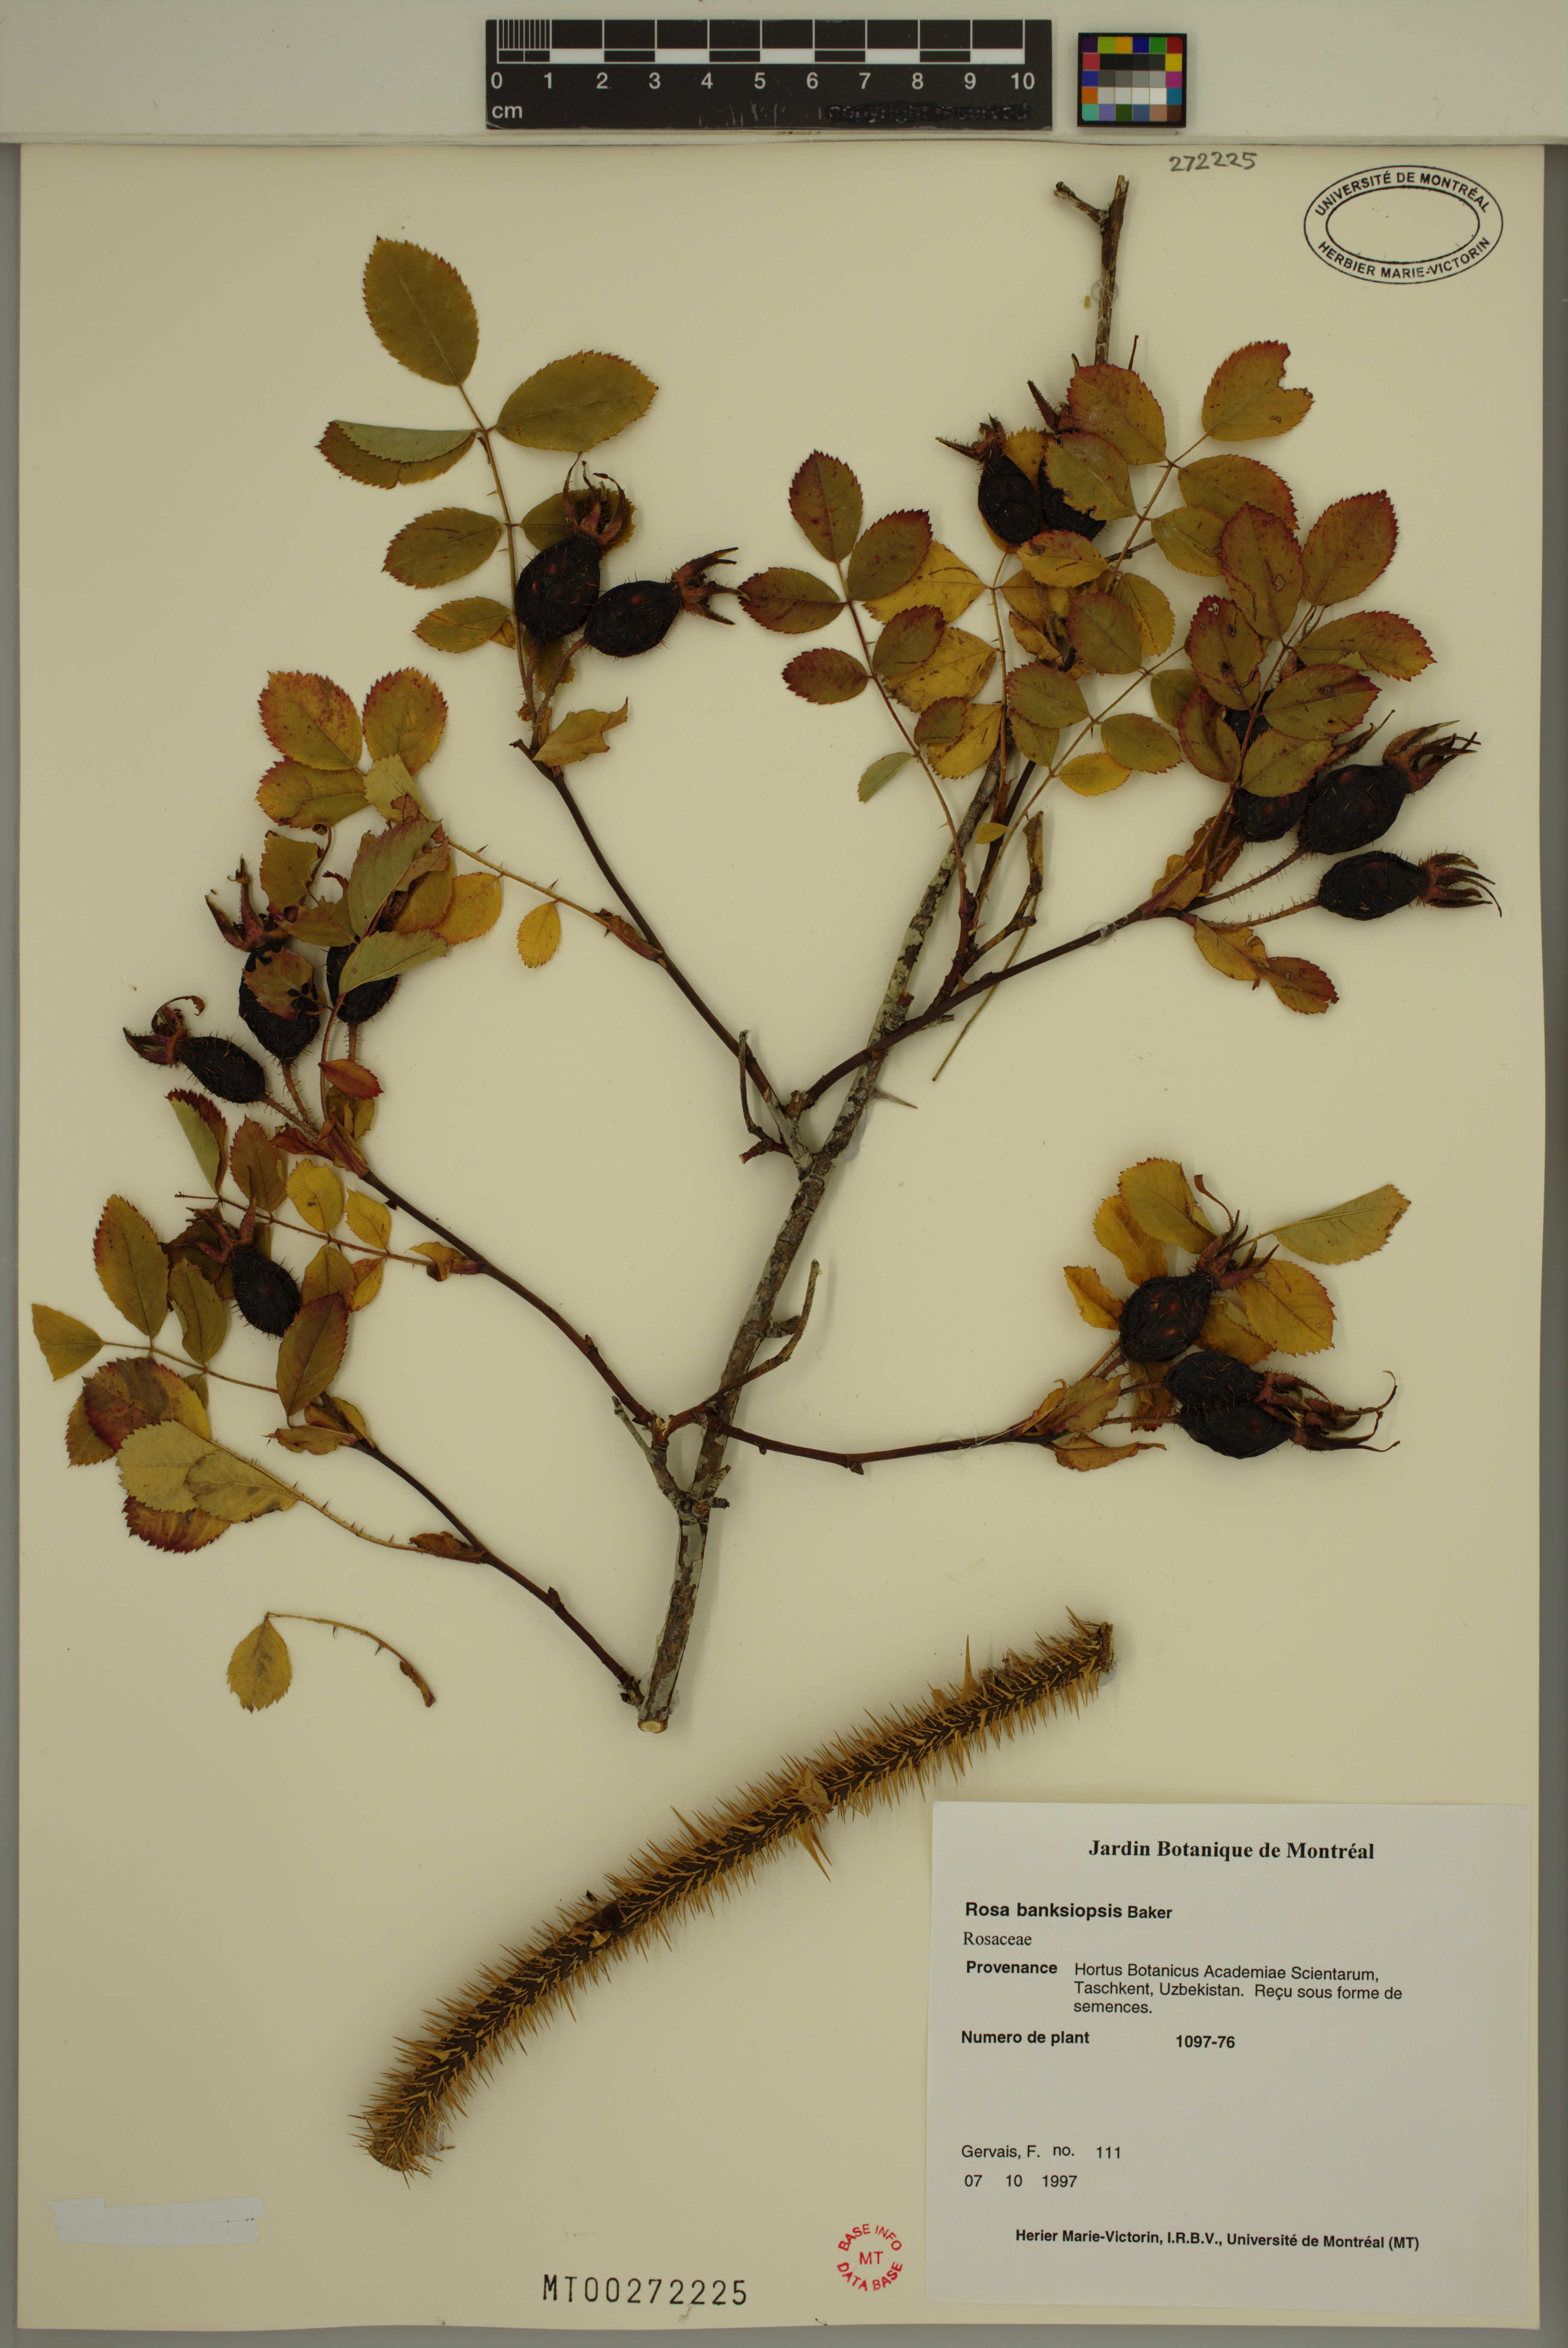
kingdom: Plantae
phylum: Tracheophyta
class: Magnoliopsida
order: Rosales
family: Rosaceae
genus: Rosa
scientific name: Rosa banksiopsis
